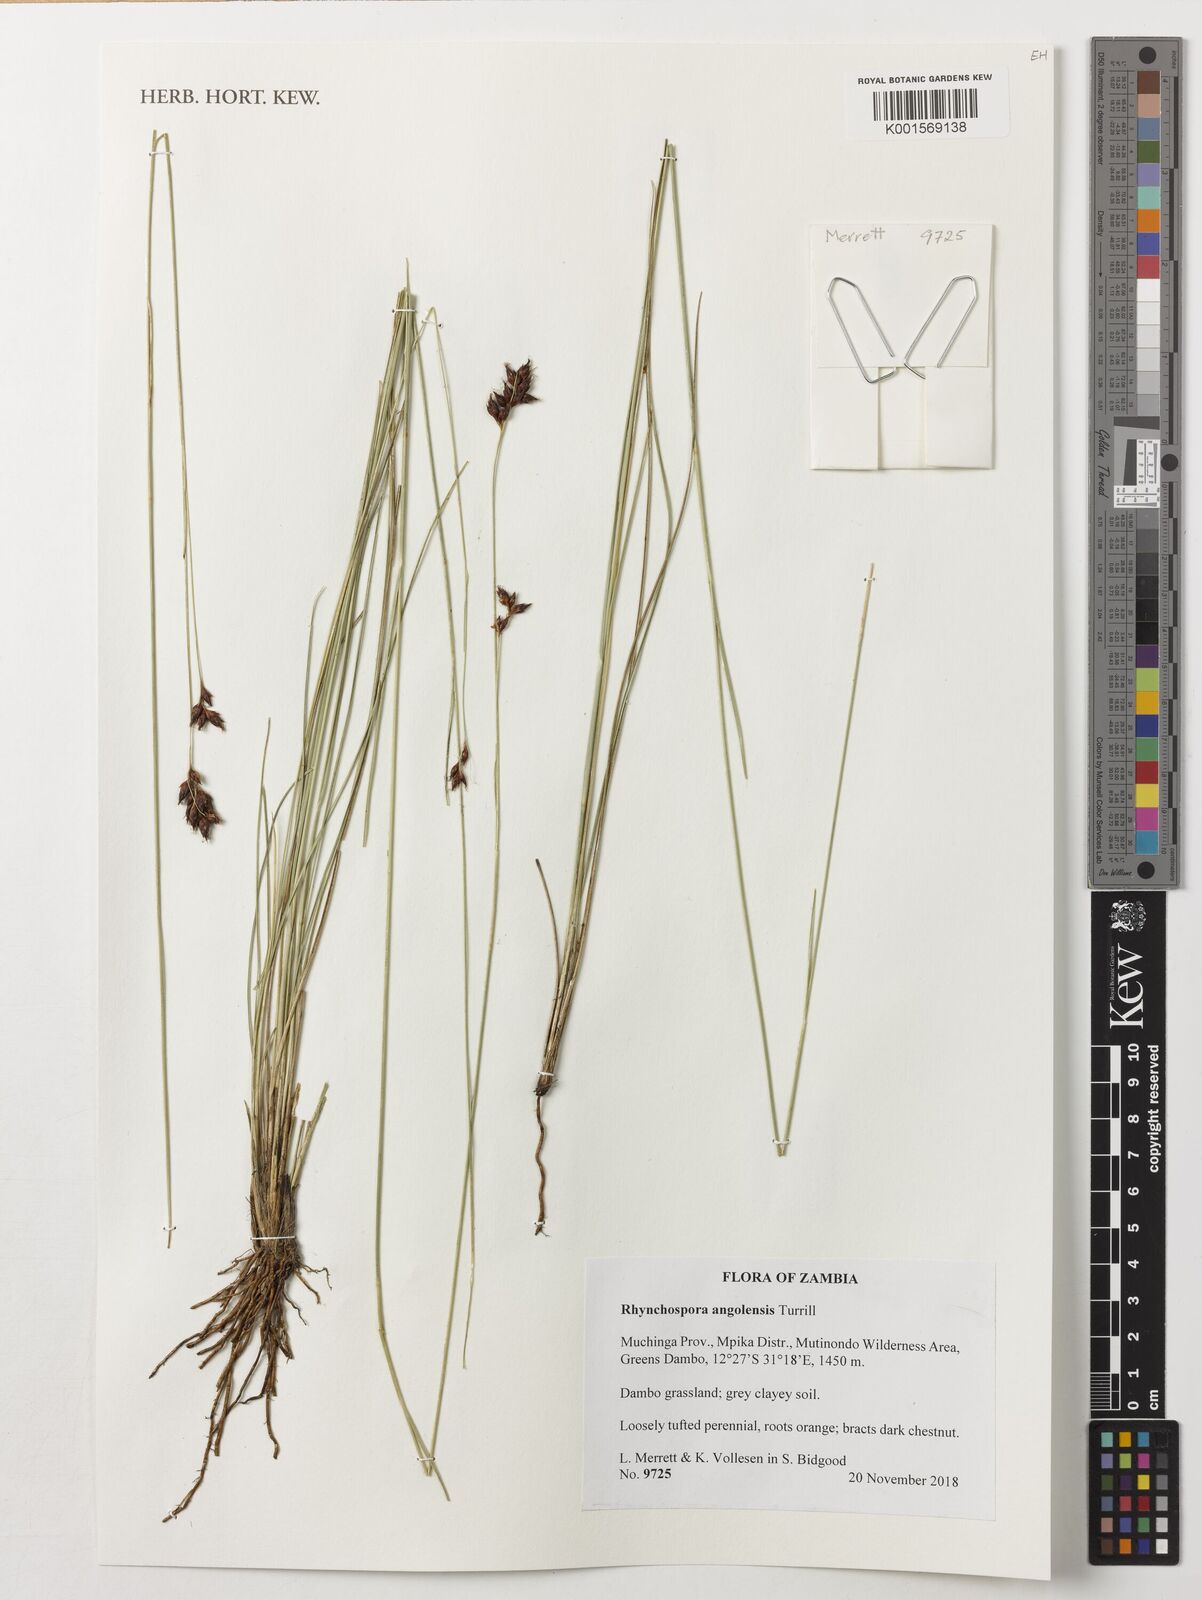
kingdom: Plantae
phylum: Tracheophyta
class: Liliopsida
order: Poales
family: Cyperaceae
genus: Rhynchospora
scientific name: Rhynchospora angolensis
